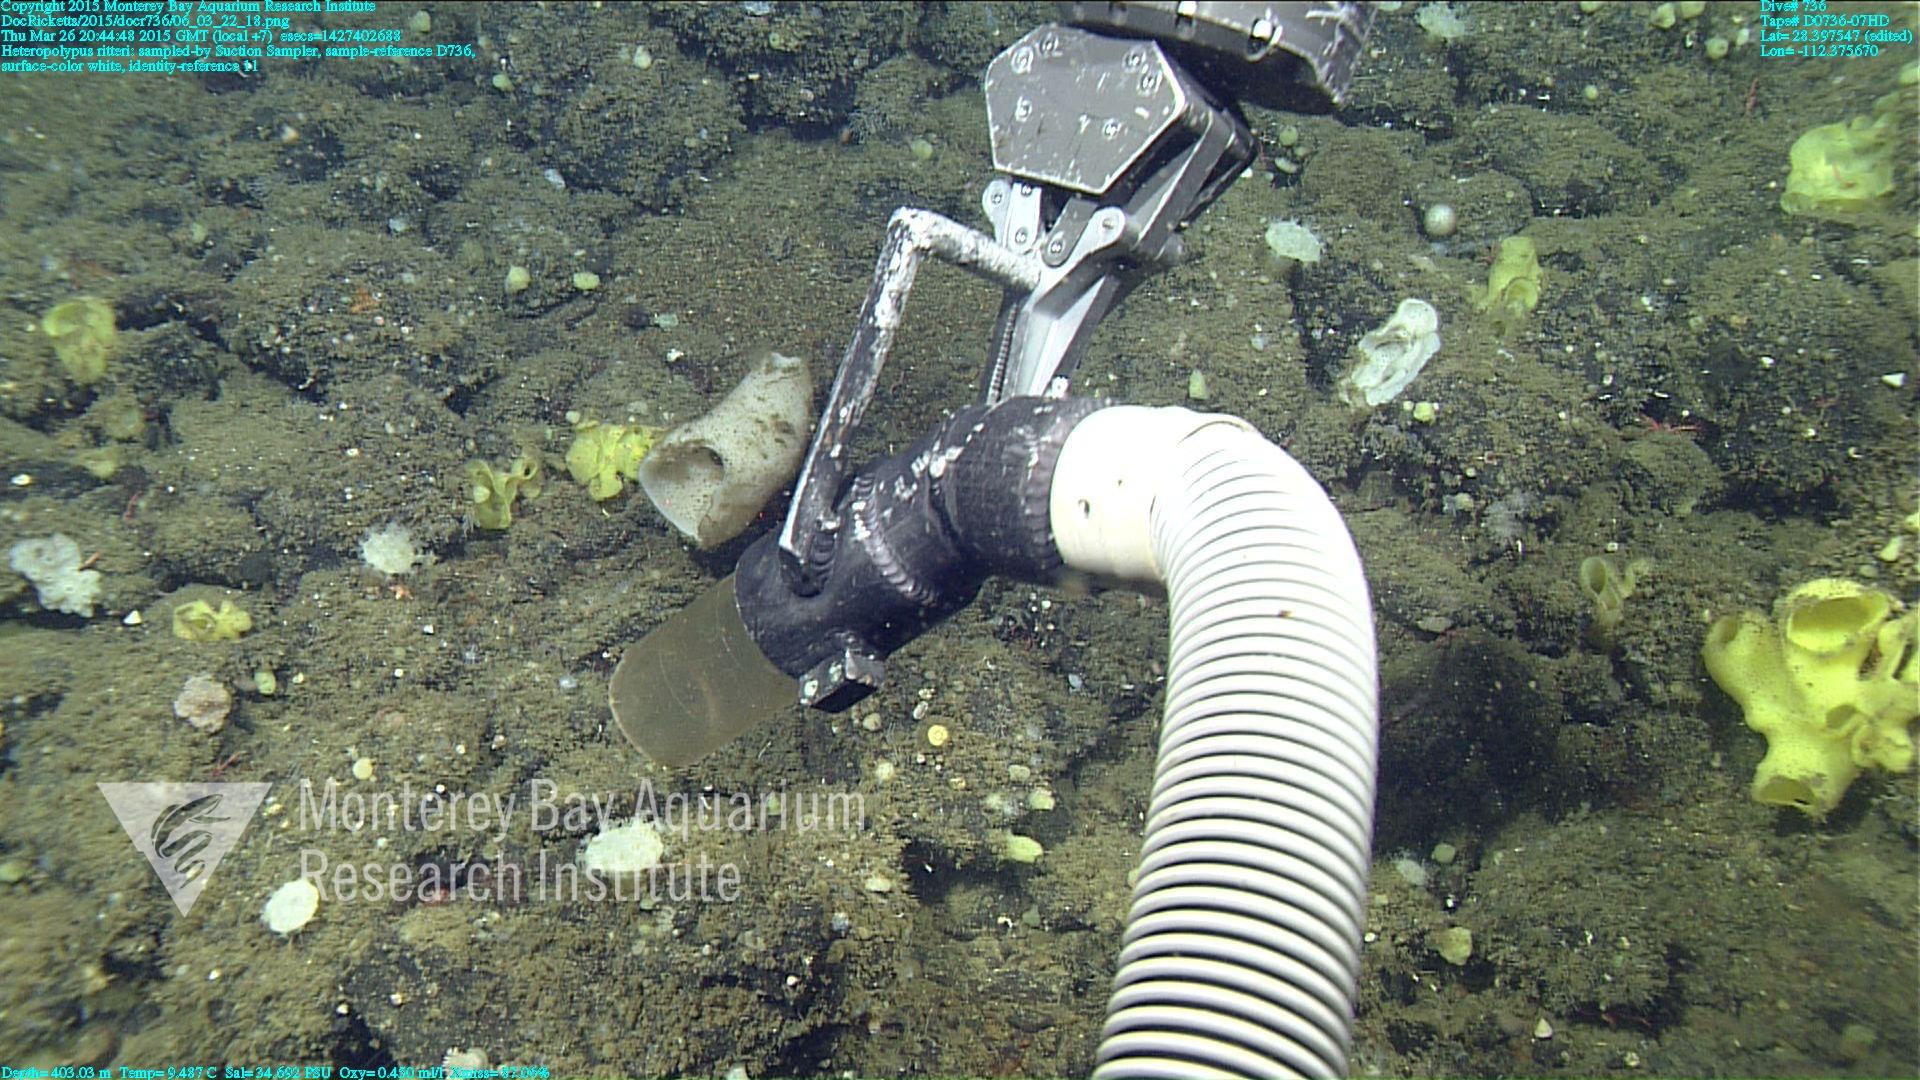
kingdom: Animalia
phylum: Cnidaria
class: Anthozoa
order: Scleralcyonacea
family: Coralliidae
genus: Heteropolypus
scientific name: Heteropolypus ritteri
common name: Ritter's soft coral
